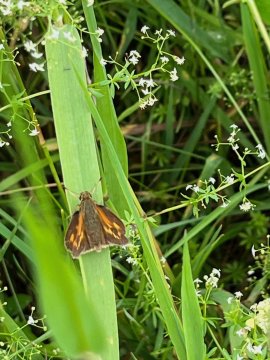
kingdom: Animalia
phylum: Arthropoda
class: Insecta
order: Lepidoptera
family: Hesperiidae
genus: Polites
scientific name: Polites
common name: Long Dash Skipper
